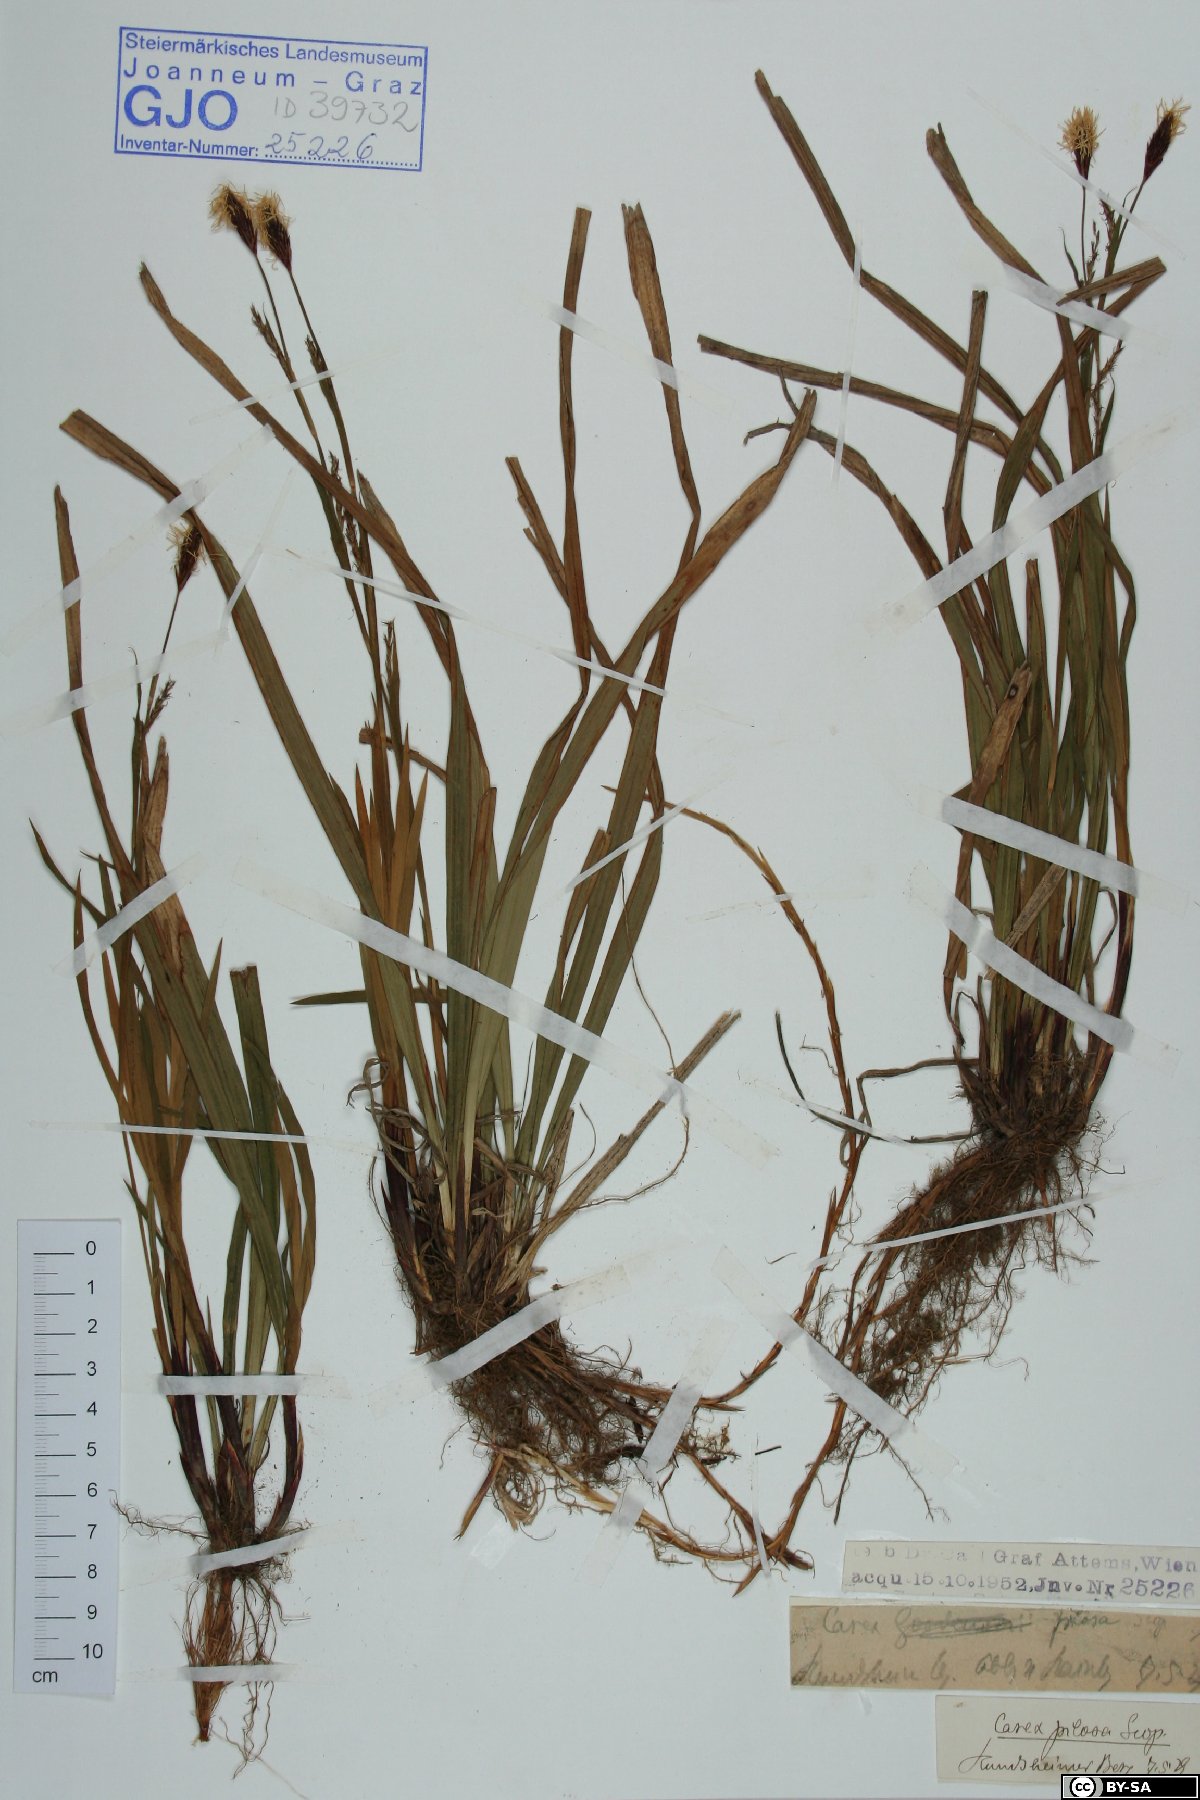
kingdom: Plantae
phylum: Tracheophyta
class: Liliopsida
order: Poales
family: Cyperaceae
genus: Carex
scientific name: Carex pilosa
